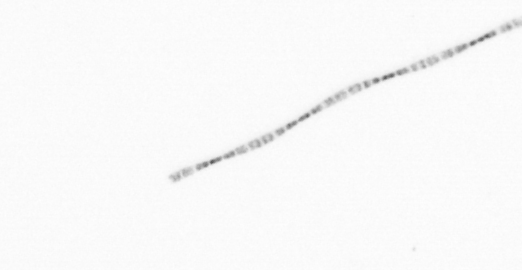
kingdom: Chromista
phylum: Ochrophyta
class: Bacillariophyceae
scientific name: Bacillariophyceae
